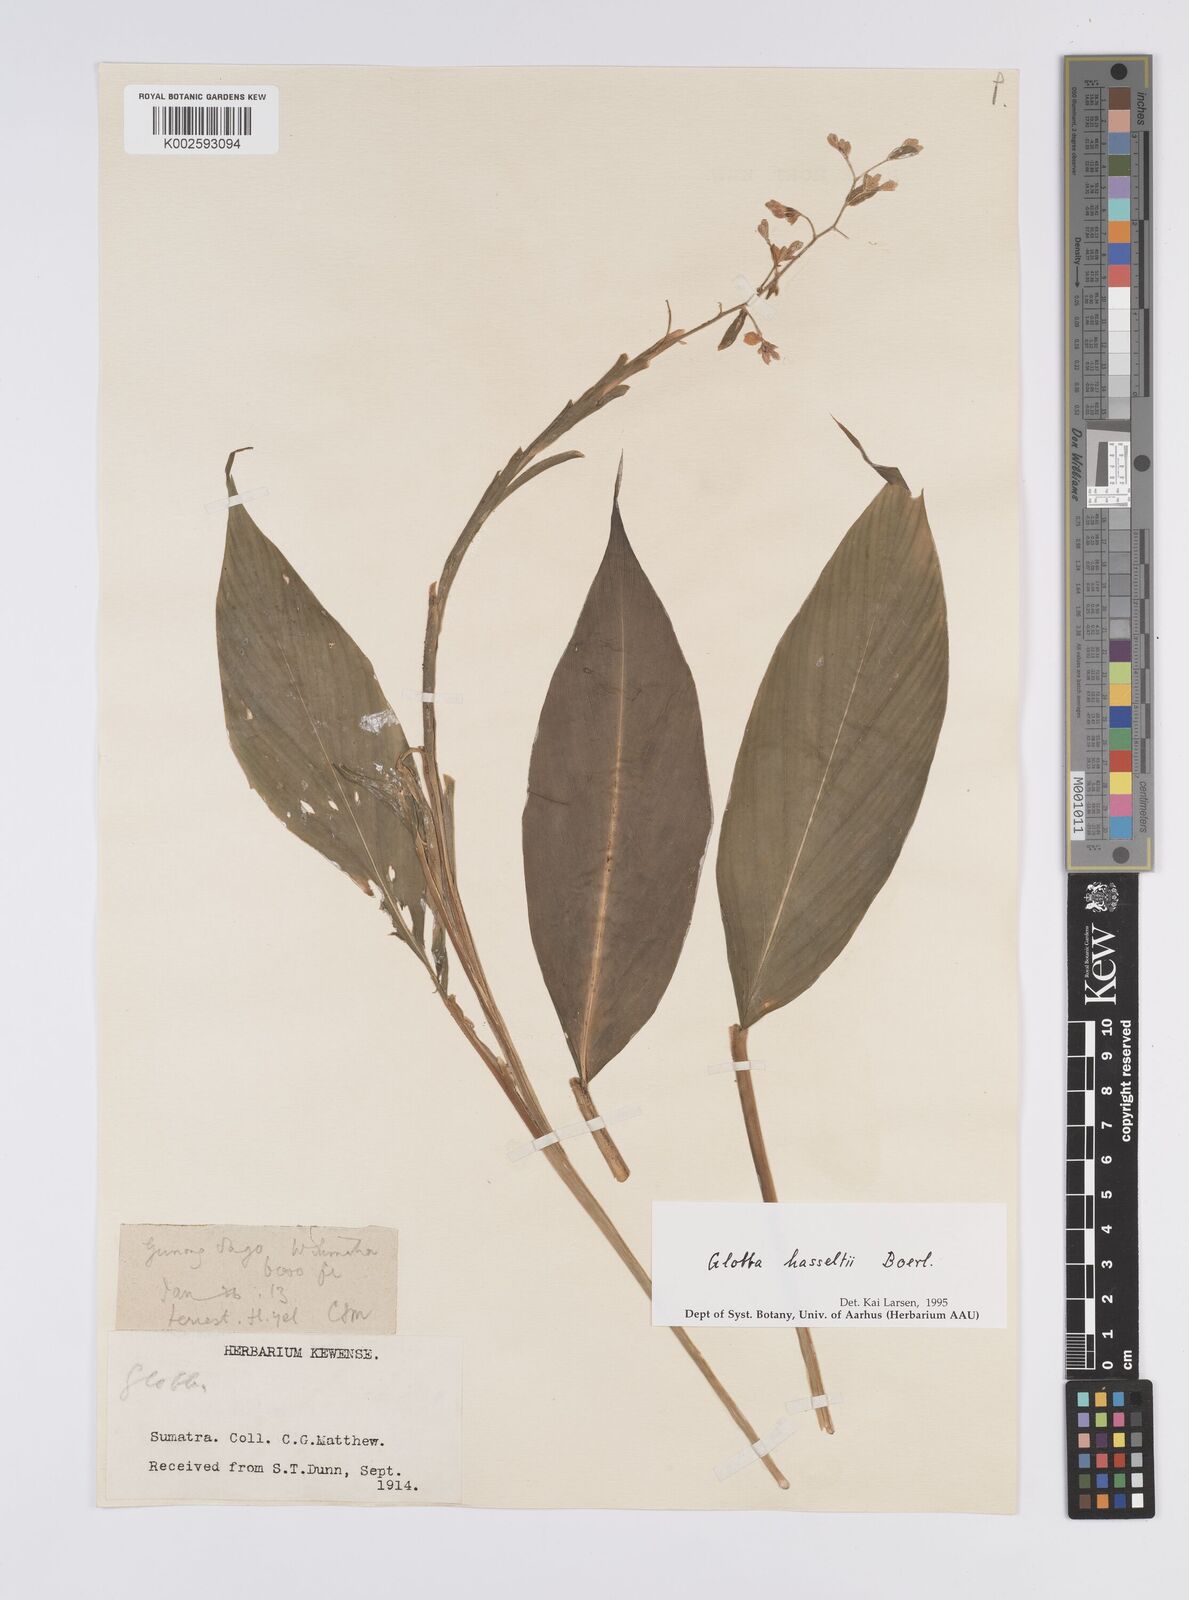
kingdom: Plantae
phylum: Tracheophyta
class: Liliopsida
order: Zingiberales
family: Zingiberaceae
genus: Globba
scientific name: Globba hasseltii
